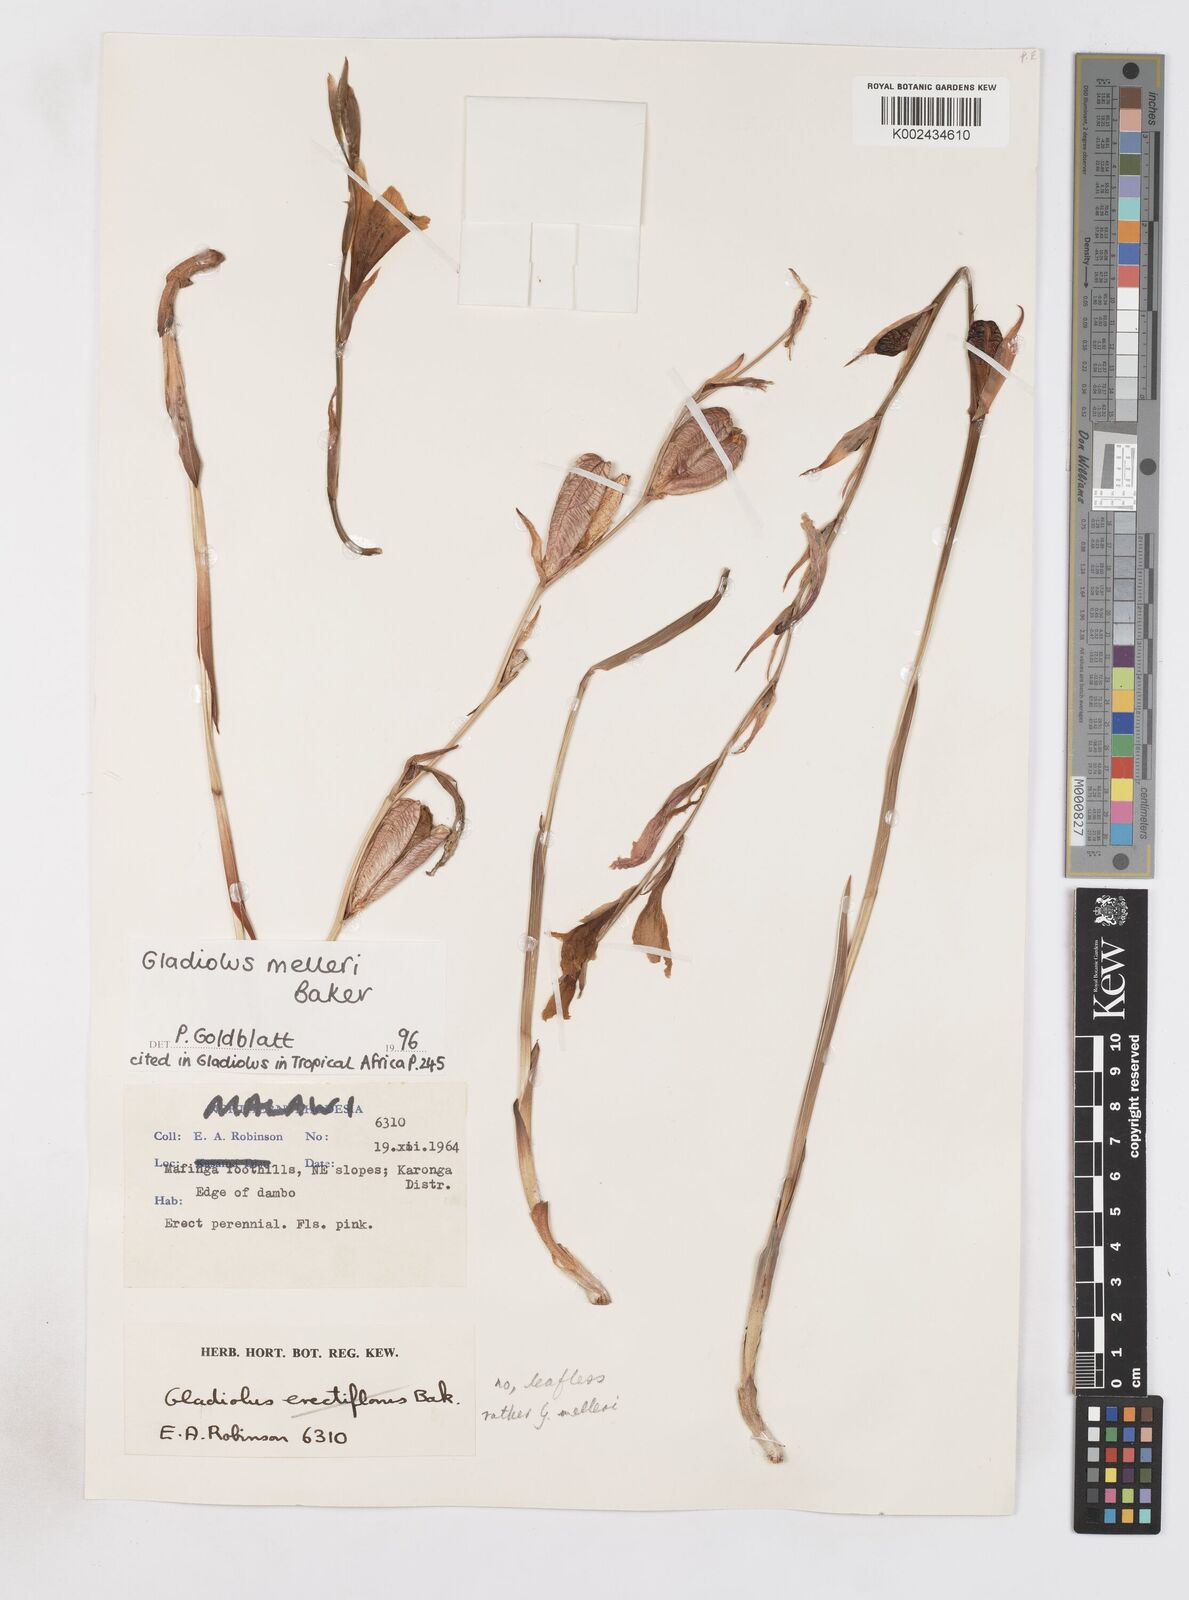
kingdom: Plantae
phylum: Tracheophyta
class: Liliopsida
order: Asparagales
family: Iridaceae
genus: Gladiolus
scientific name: Gladiolus melleri
